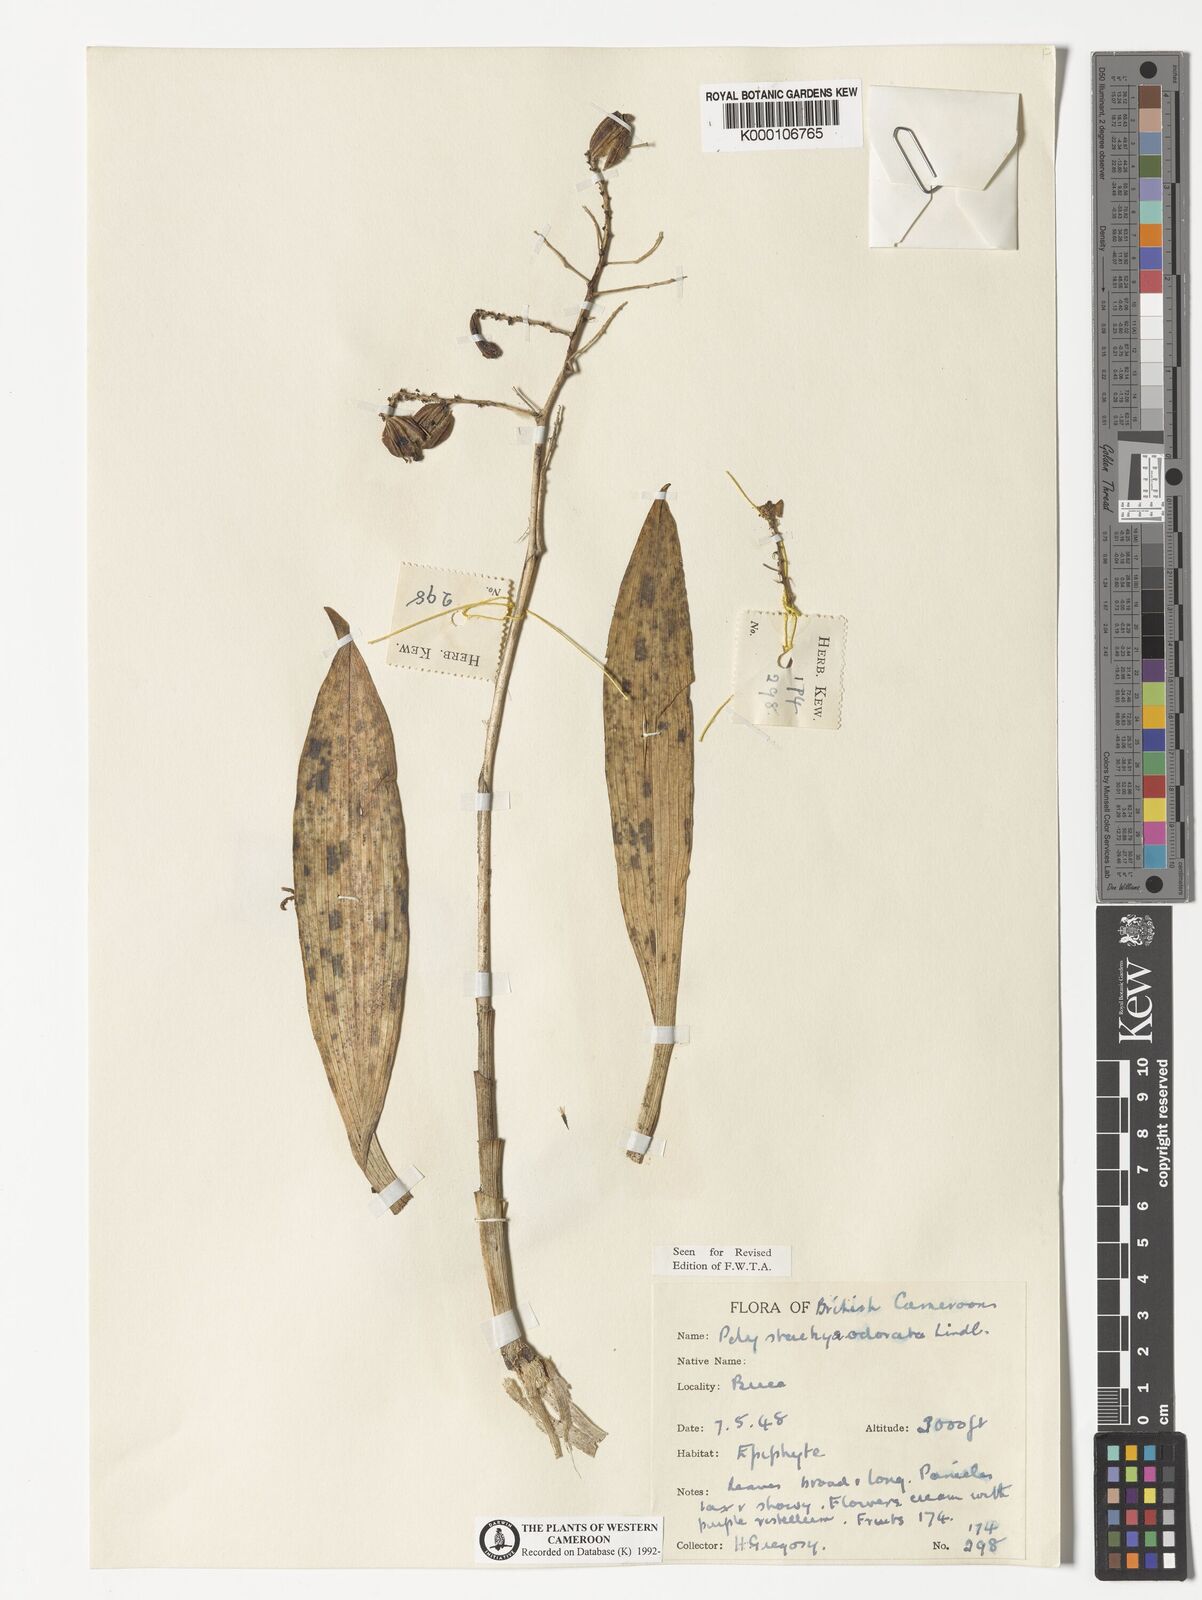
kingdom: Plantae
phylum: Tracheophyta
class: Liliopsida
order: Asparagales
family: Orchidaceae
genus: Polystachya
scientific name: Polystachya odorata
